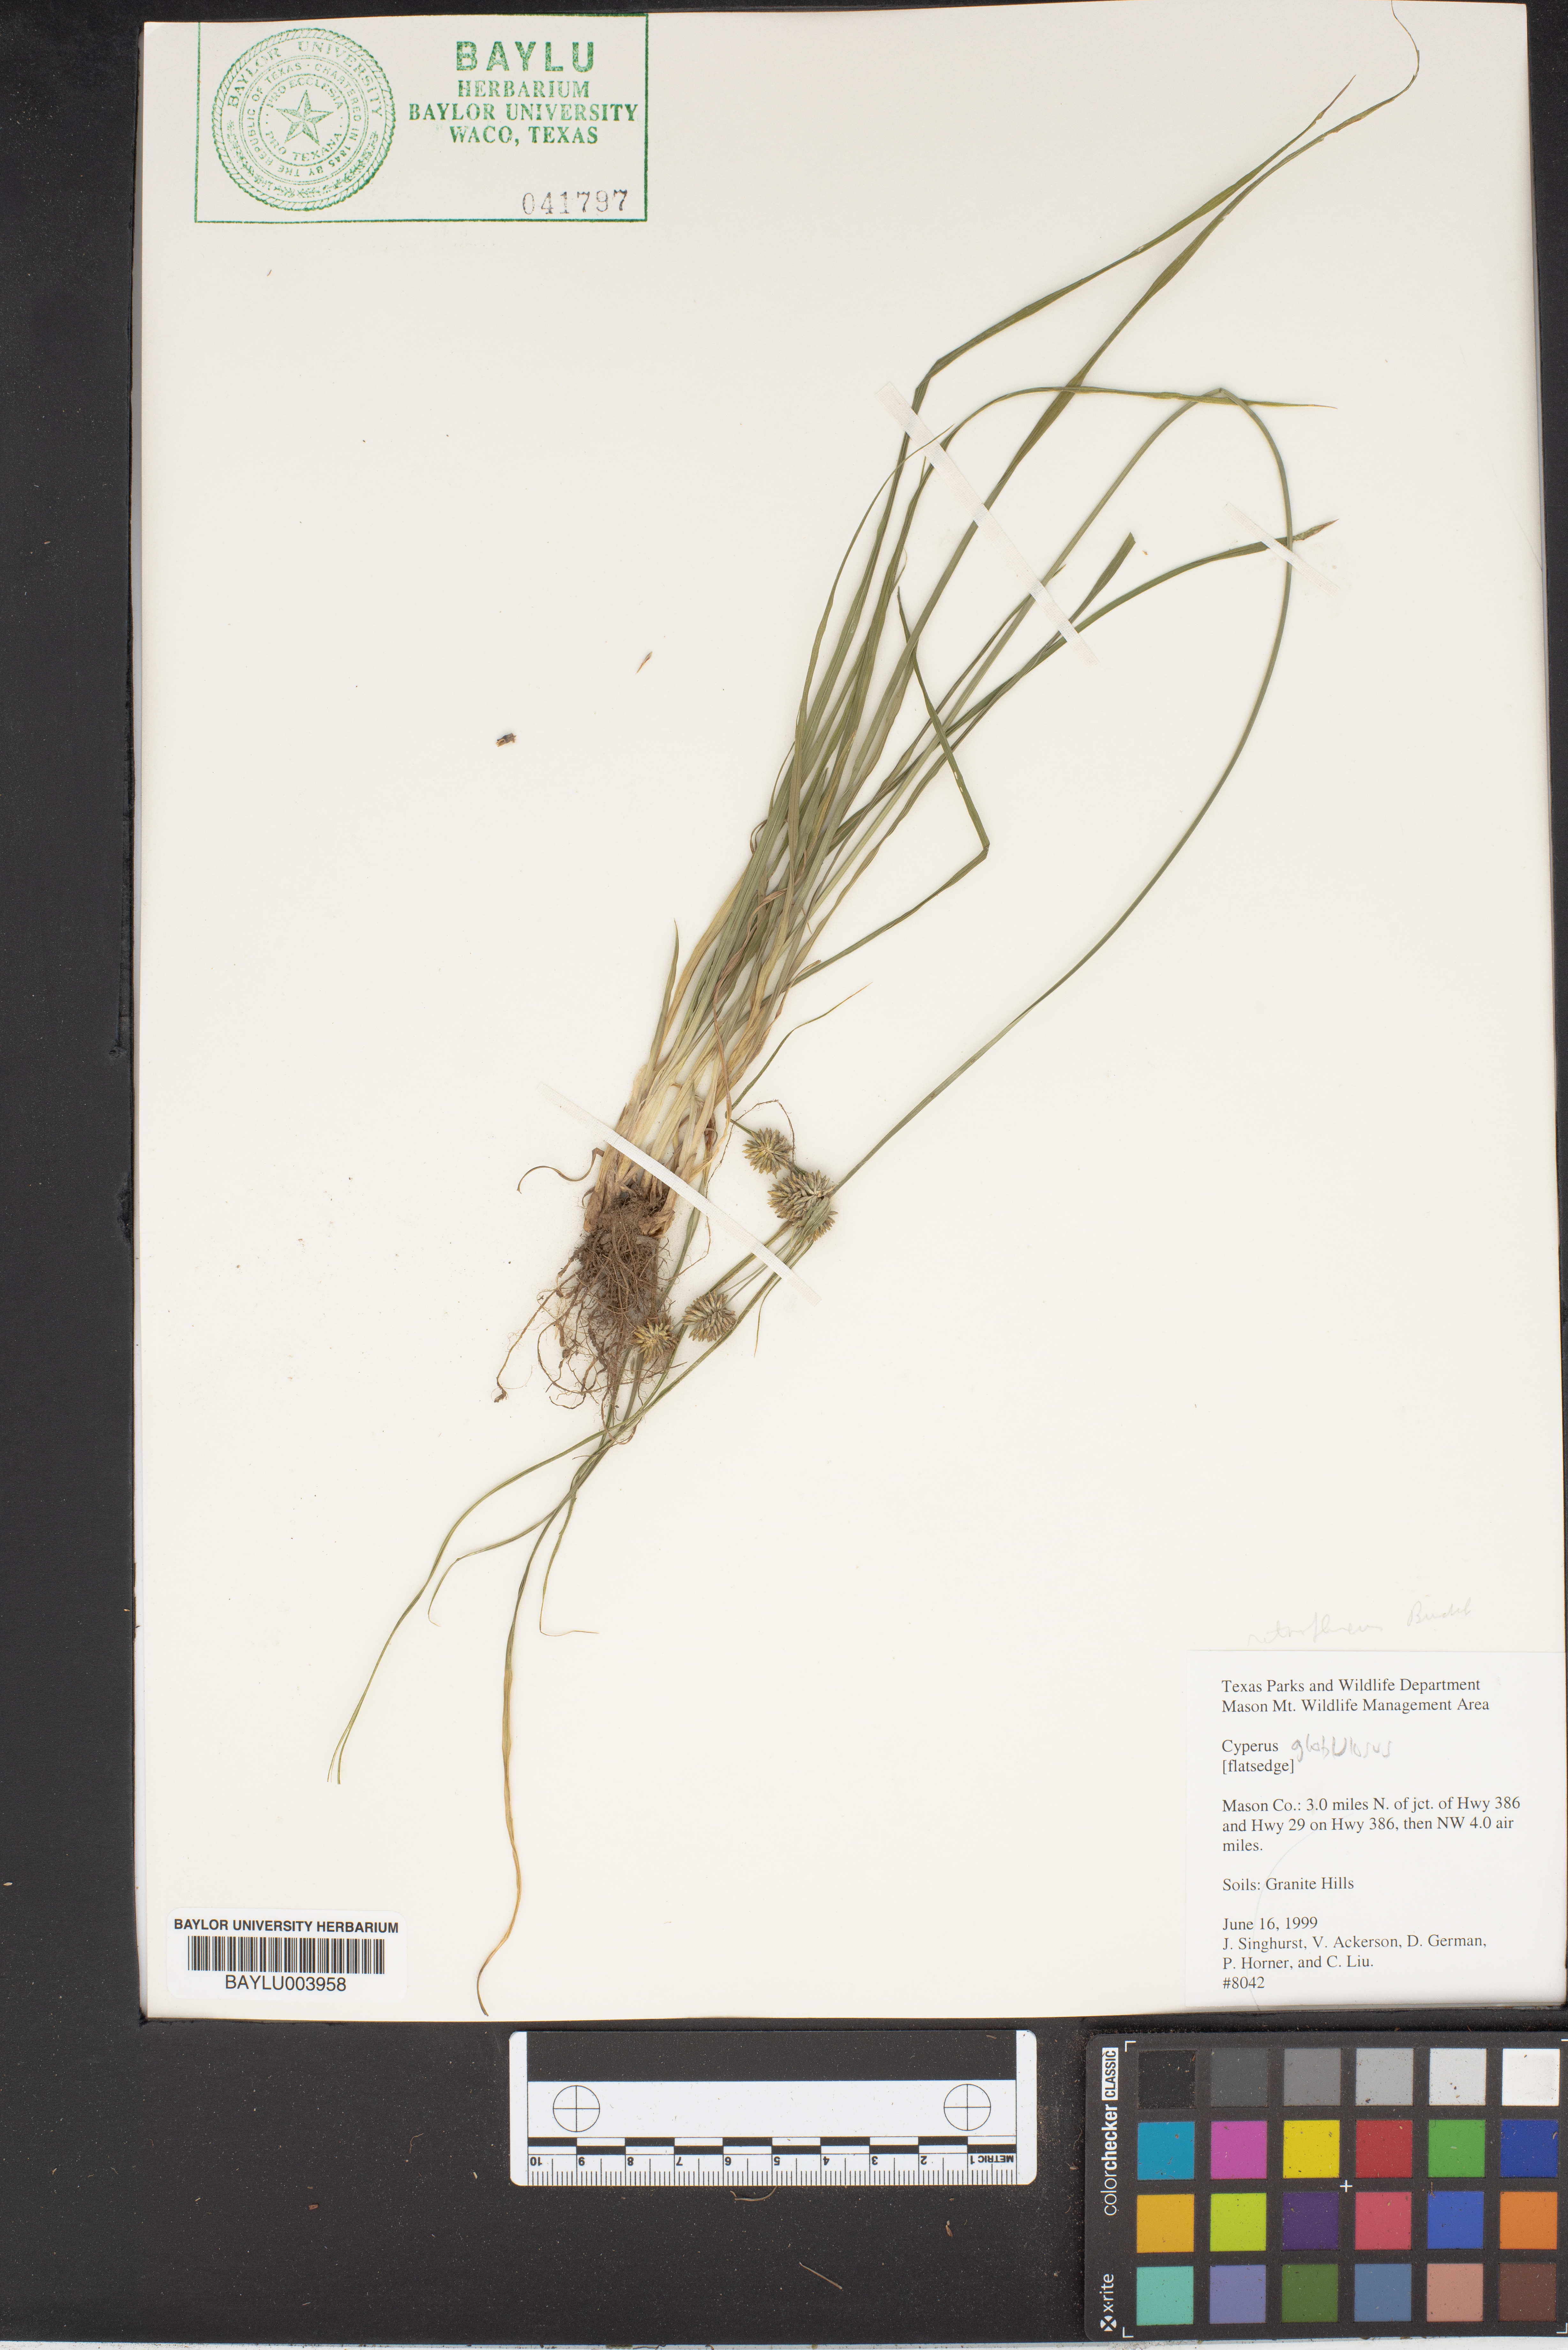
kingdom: Plantae
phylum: Tracheophyta
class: Liliopsida
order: Poales
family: Cyperaceae
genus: Cyperus
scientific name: Cyperus cruentus
